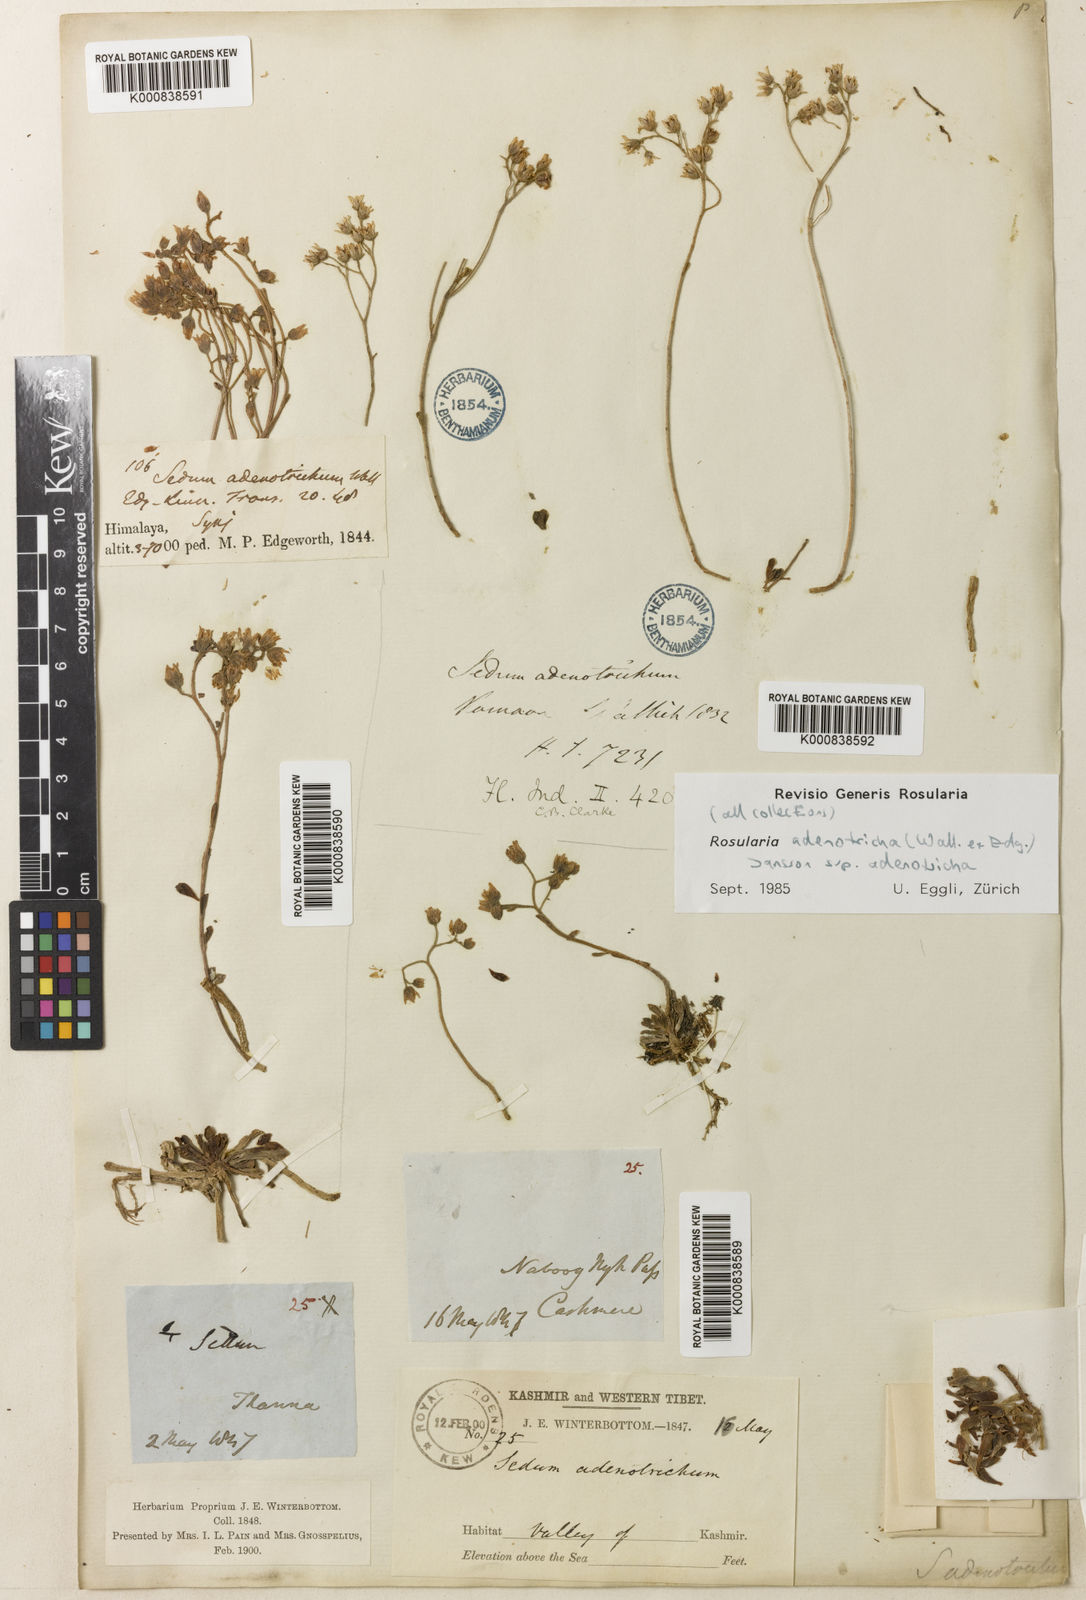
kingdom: Plantae
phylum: Tracheophyta
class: Magnoliopsida
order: Saxifragales
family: Crassulaceae
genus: Rosularia
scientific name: Rosularia adenotricha
